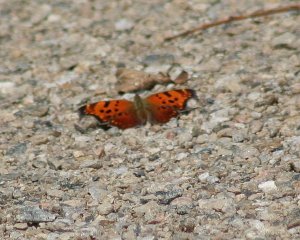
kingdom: Animalia
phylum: Arthropoda
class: Insecta
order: Lepidoptera
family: Nymphalidae
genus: Polygonia
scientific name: Polygonia comma
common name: Eastern Comma
